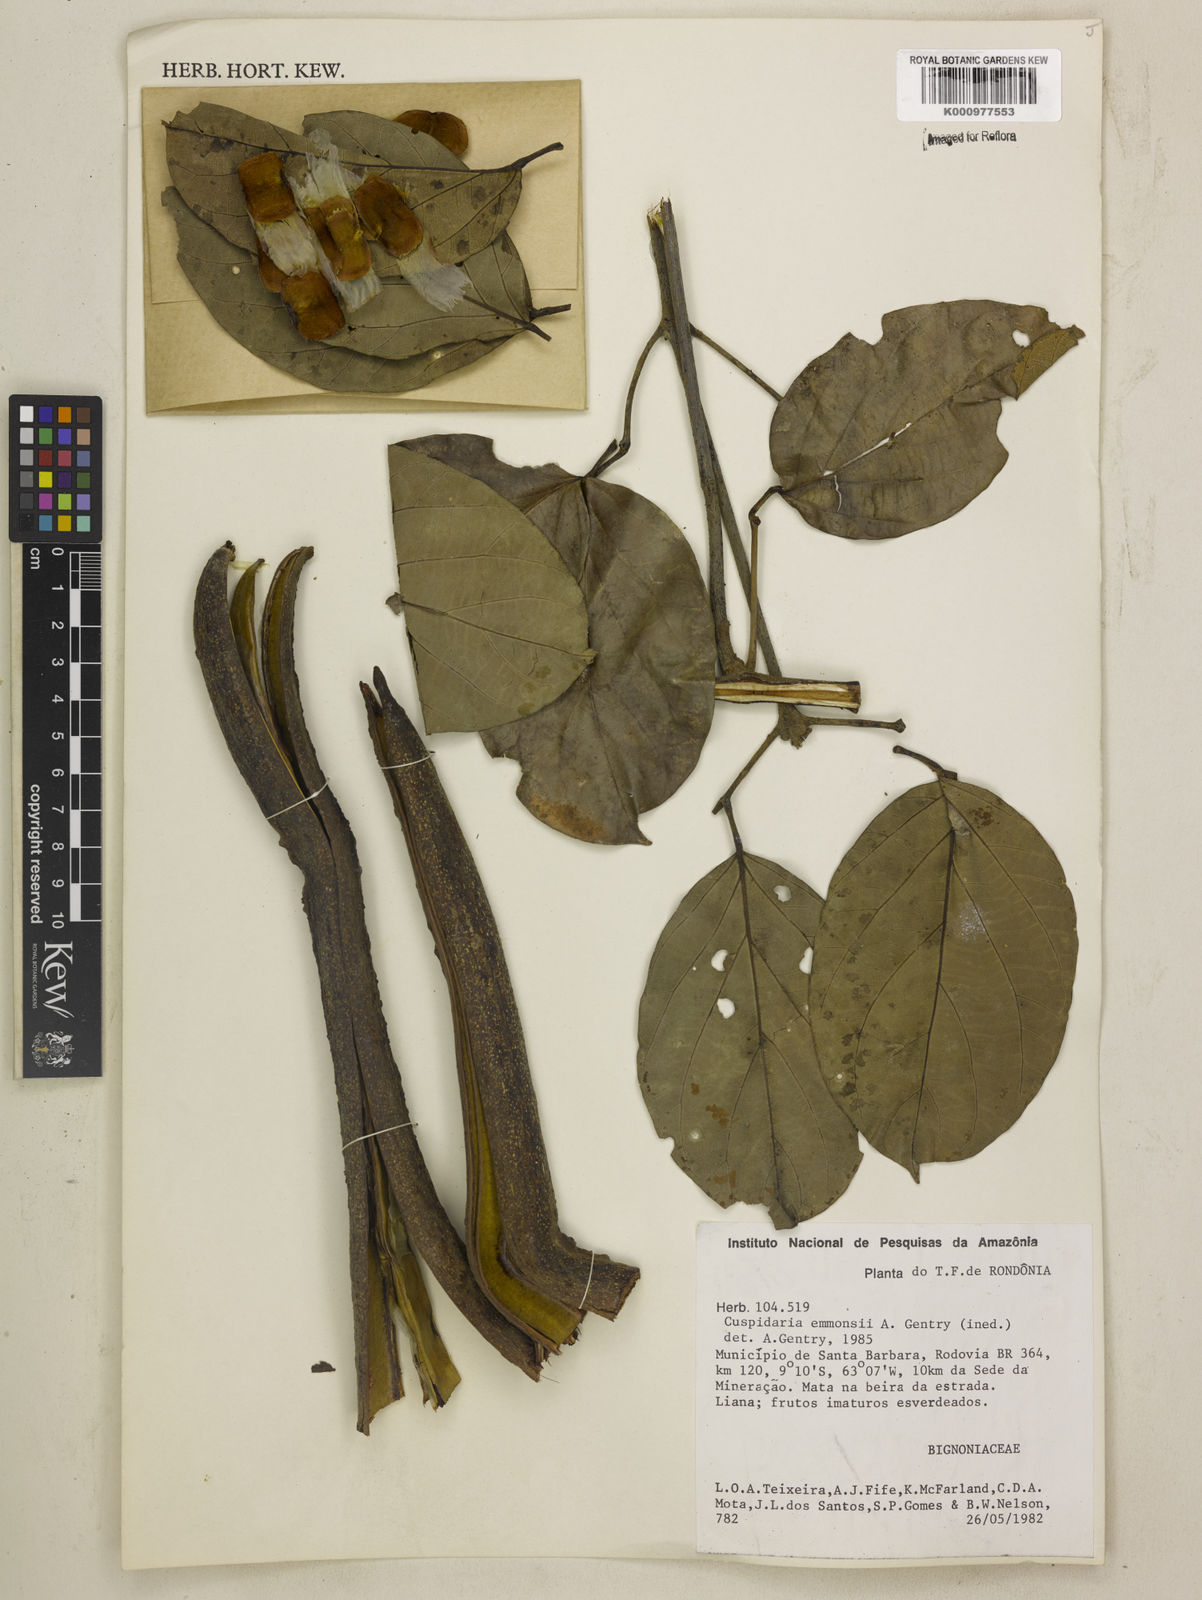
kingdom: Plantae
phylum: Tracheophyta
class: Magnoliopsida
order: Lamiales
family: Bignoniaceae
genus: Cuspidaria
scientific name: Cuspidaria emmonsii
